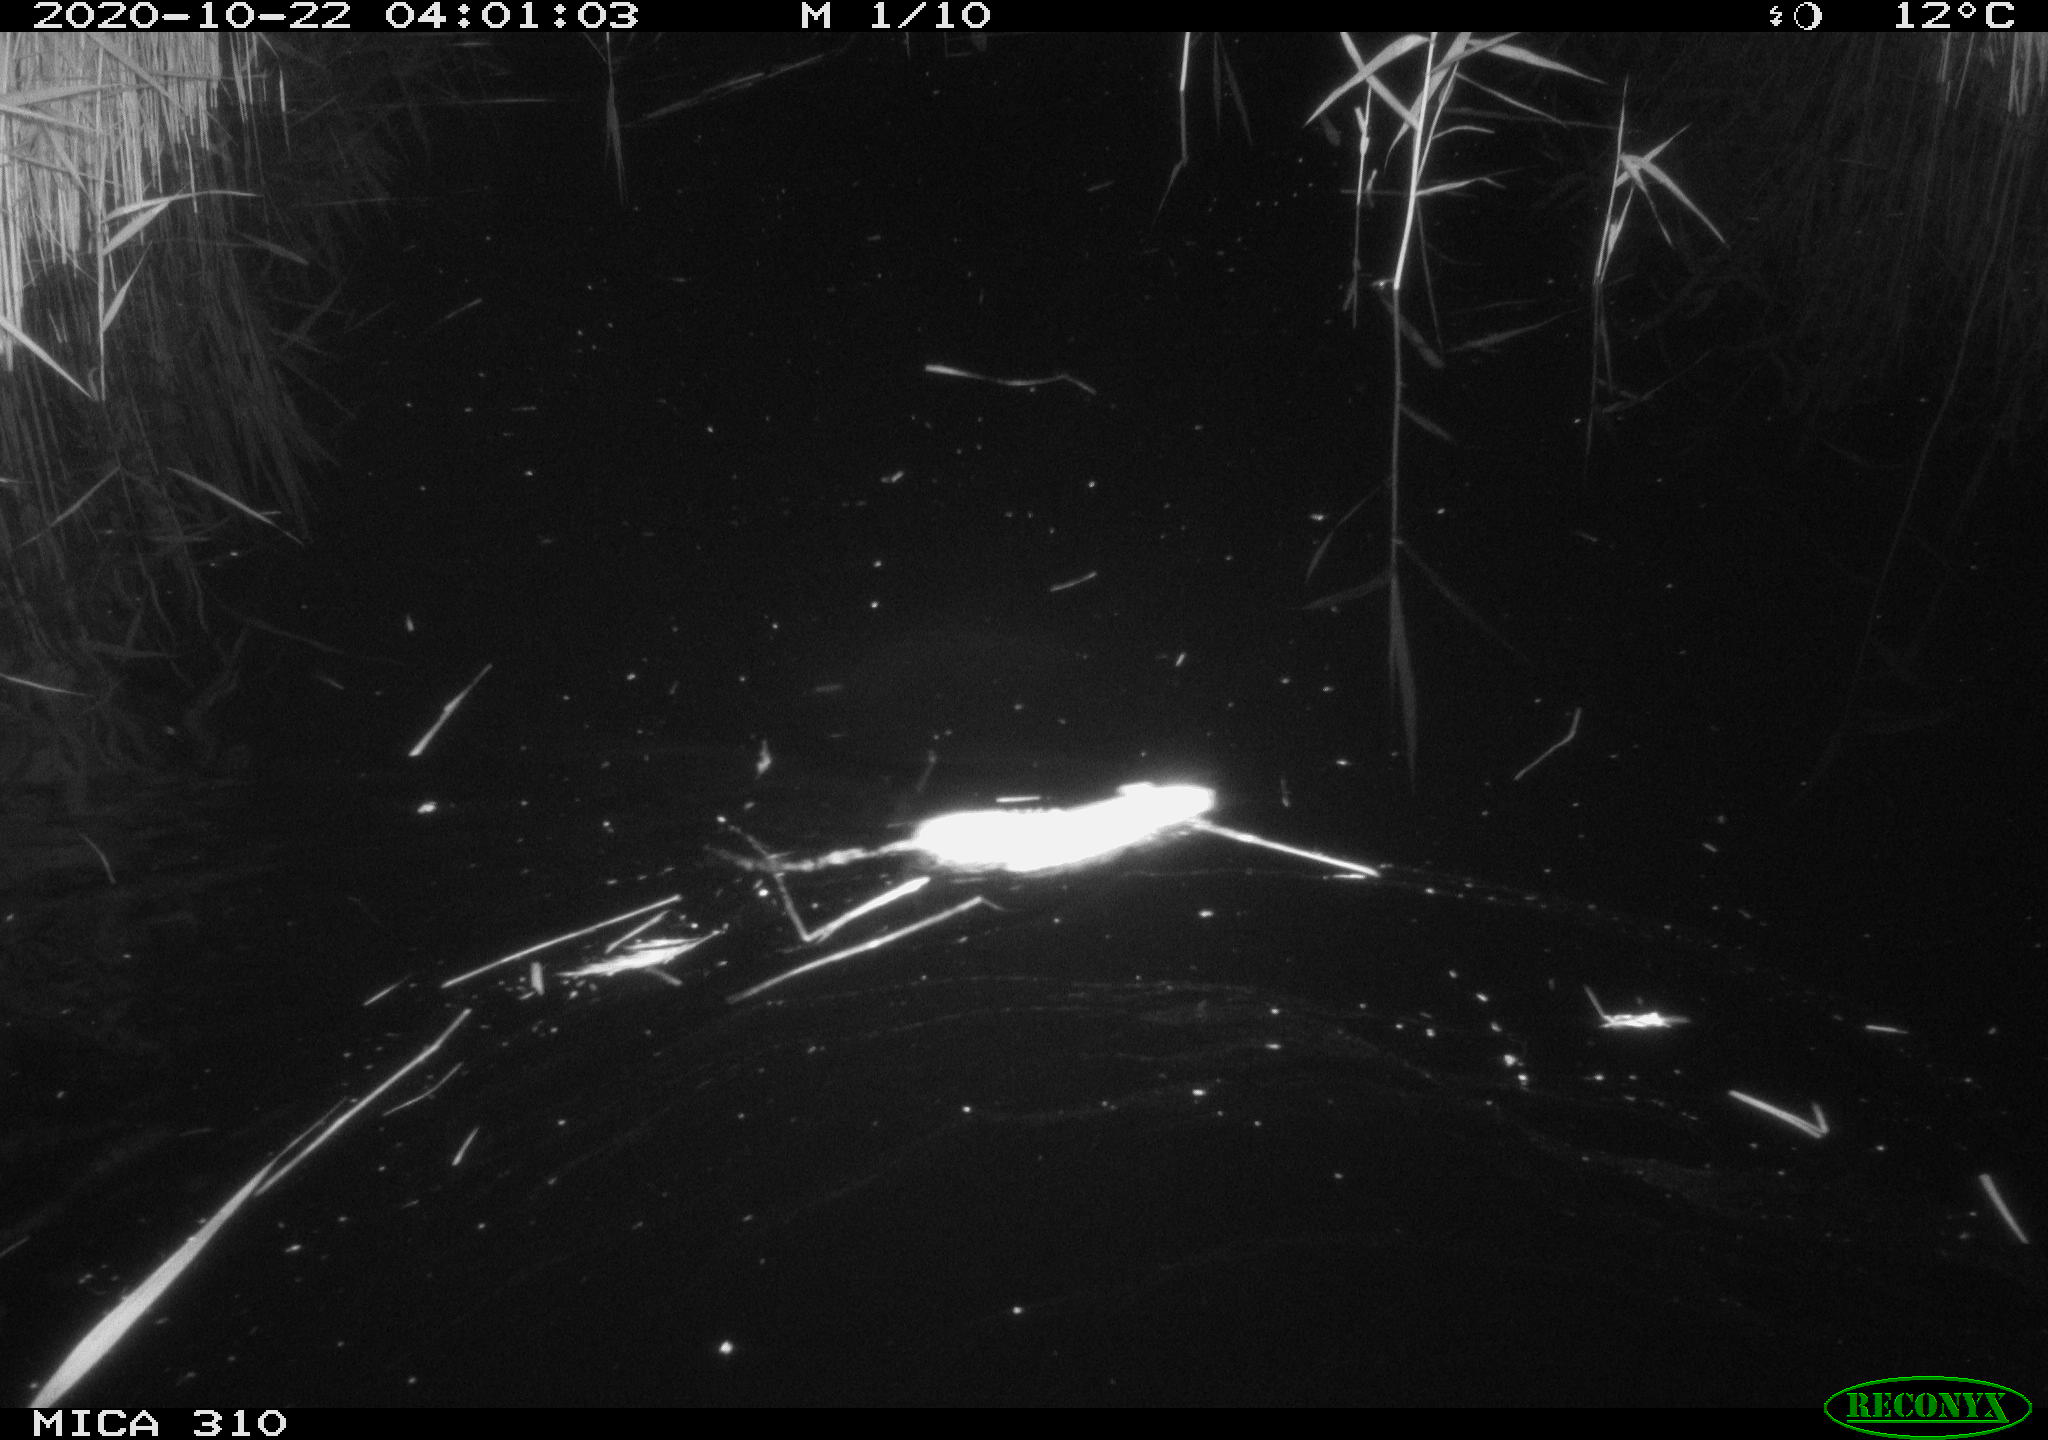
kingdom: Animalia
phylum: Chordata
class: Mammalia
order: Rodentia
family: Muridae
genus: Rattus
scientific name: Rattus norvegicus
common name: Brown rat
